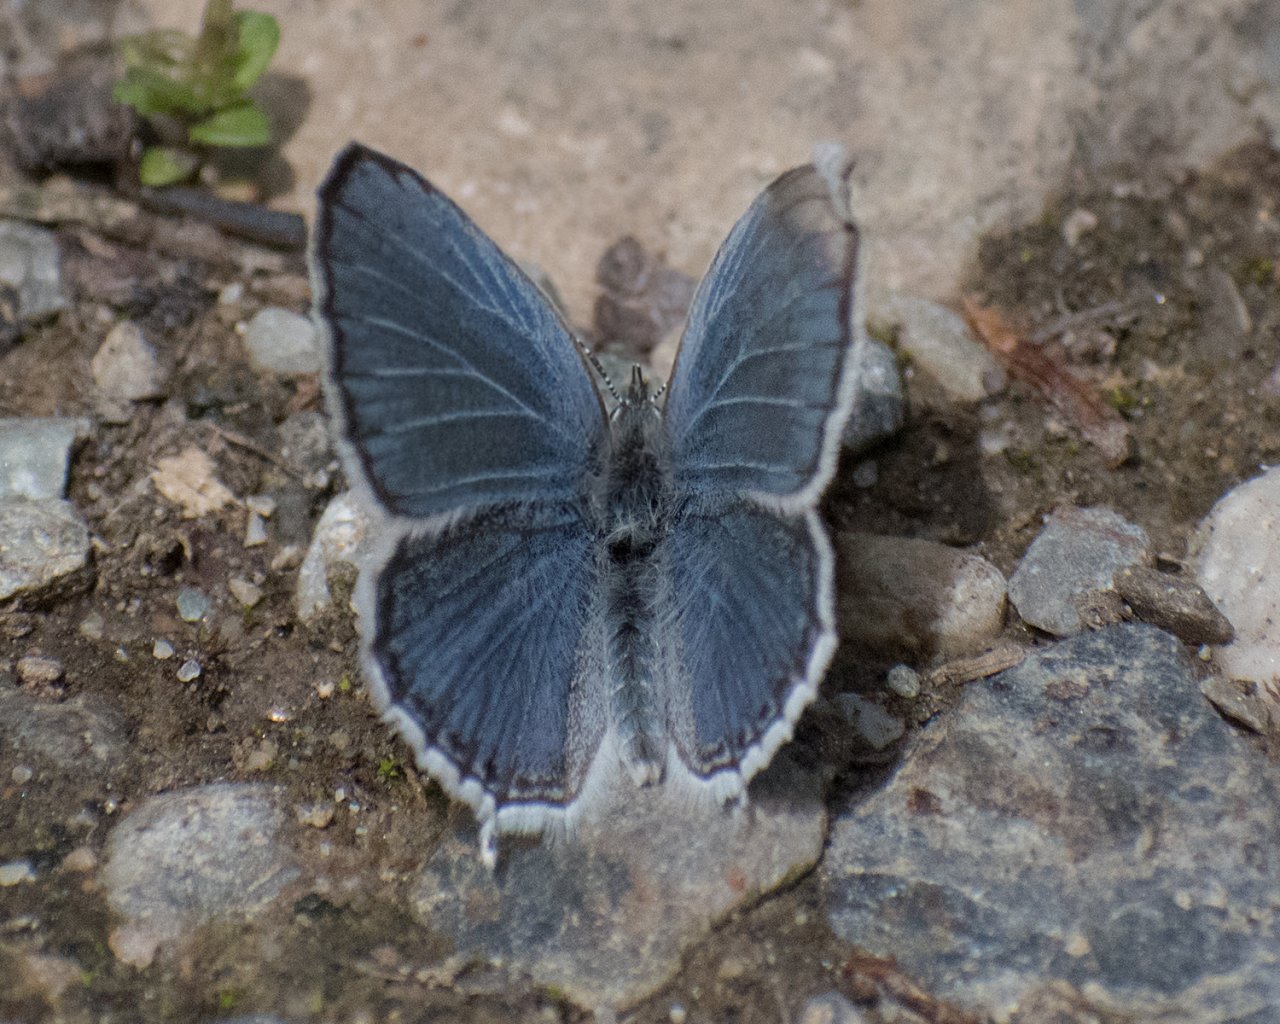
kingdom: Animalia
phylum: Arthropoda
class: Insecta
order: Lepidoptera
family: Lycaenidae
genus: Elkalyce
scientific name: Elkalyce amyntula
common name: Western Tailed-Blue
